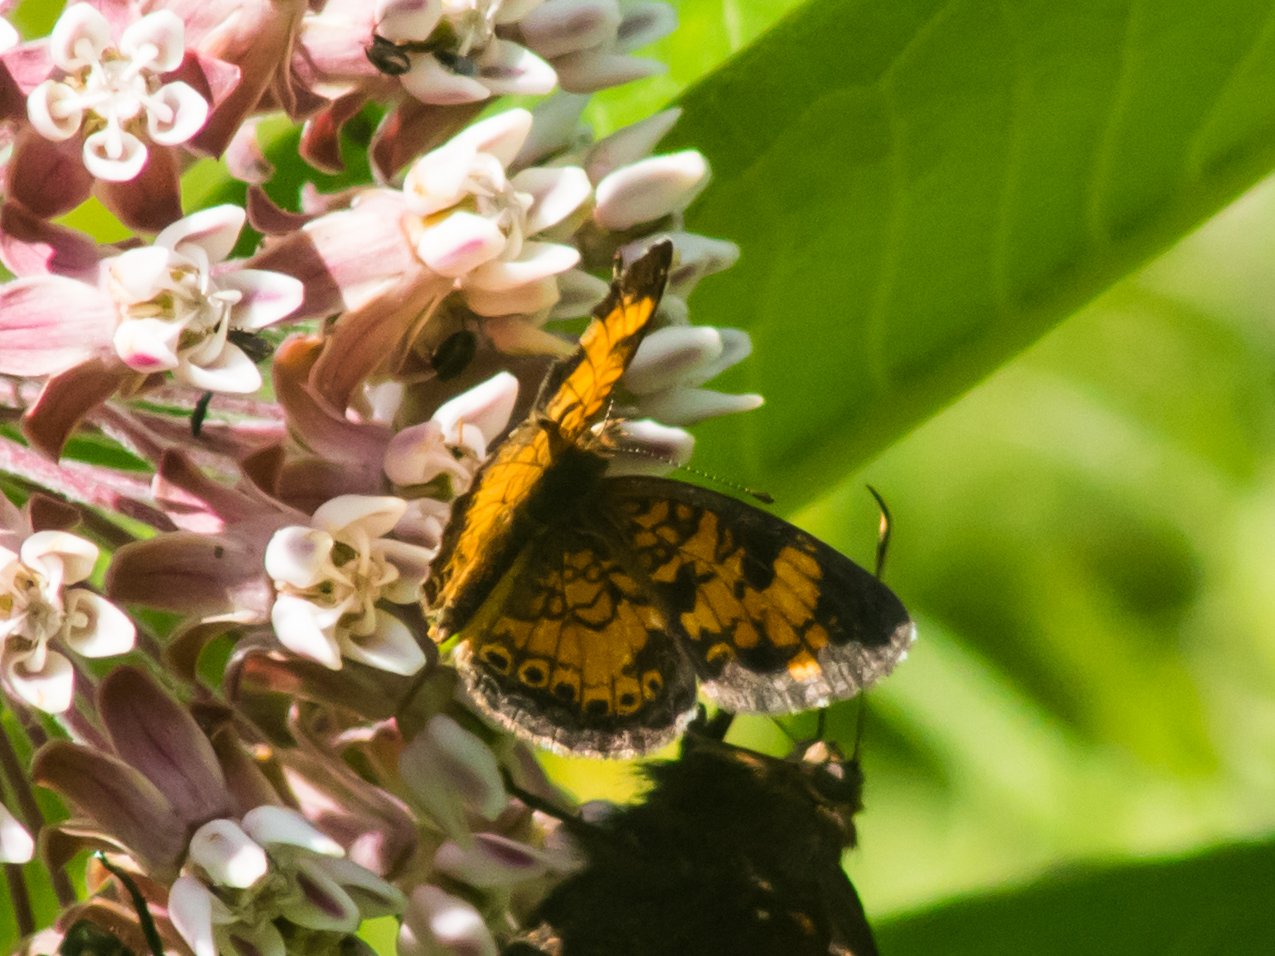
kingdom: Animalia
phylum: Arthropoda
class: Insecta
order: Lepidoptera
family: Nymphalidae
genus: Phyciodes
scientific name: Phyciodes tharos
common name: Pearl Crescent
